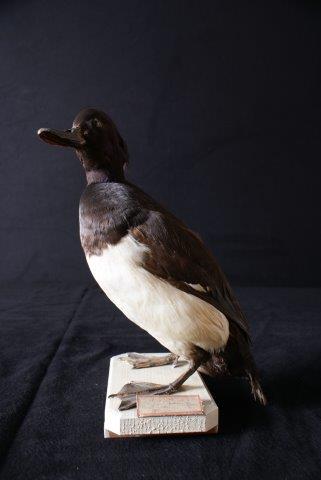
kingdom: Animalia
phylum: Chordata
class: Aves
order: Anseriformes
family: Anatidae
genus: Aythya
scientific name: Aythya fuligula
